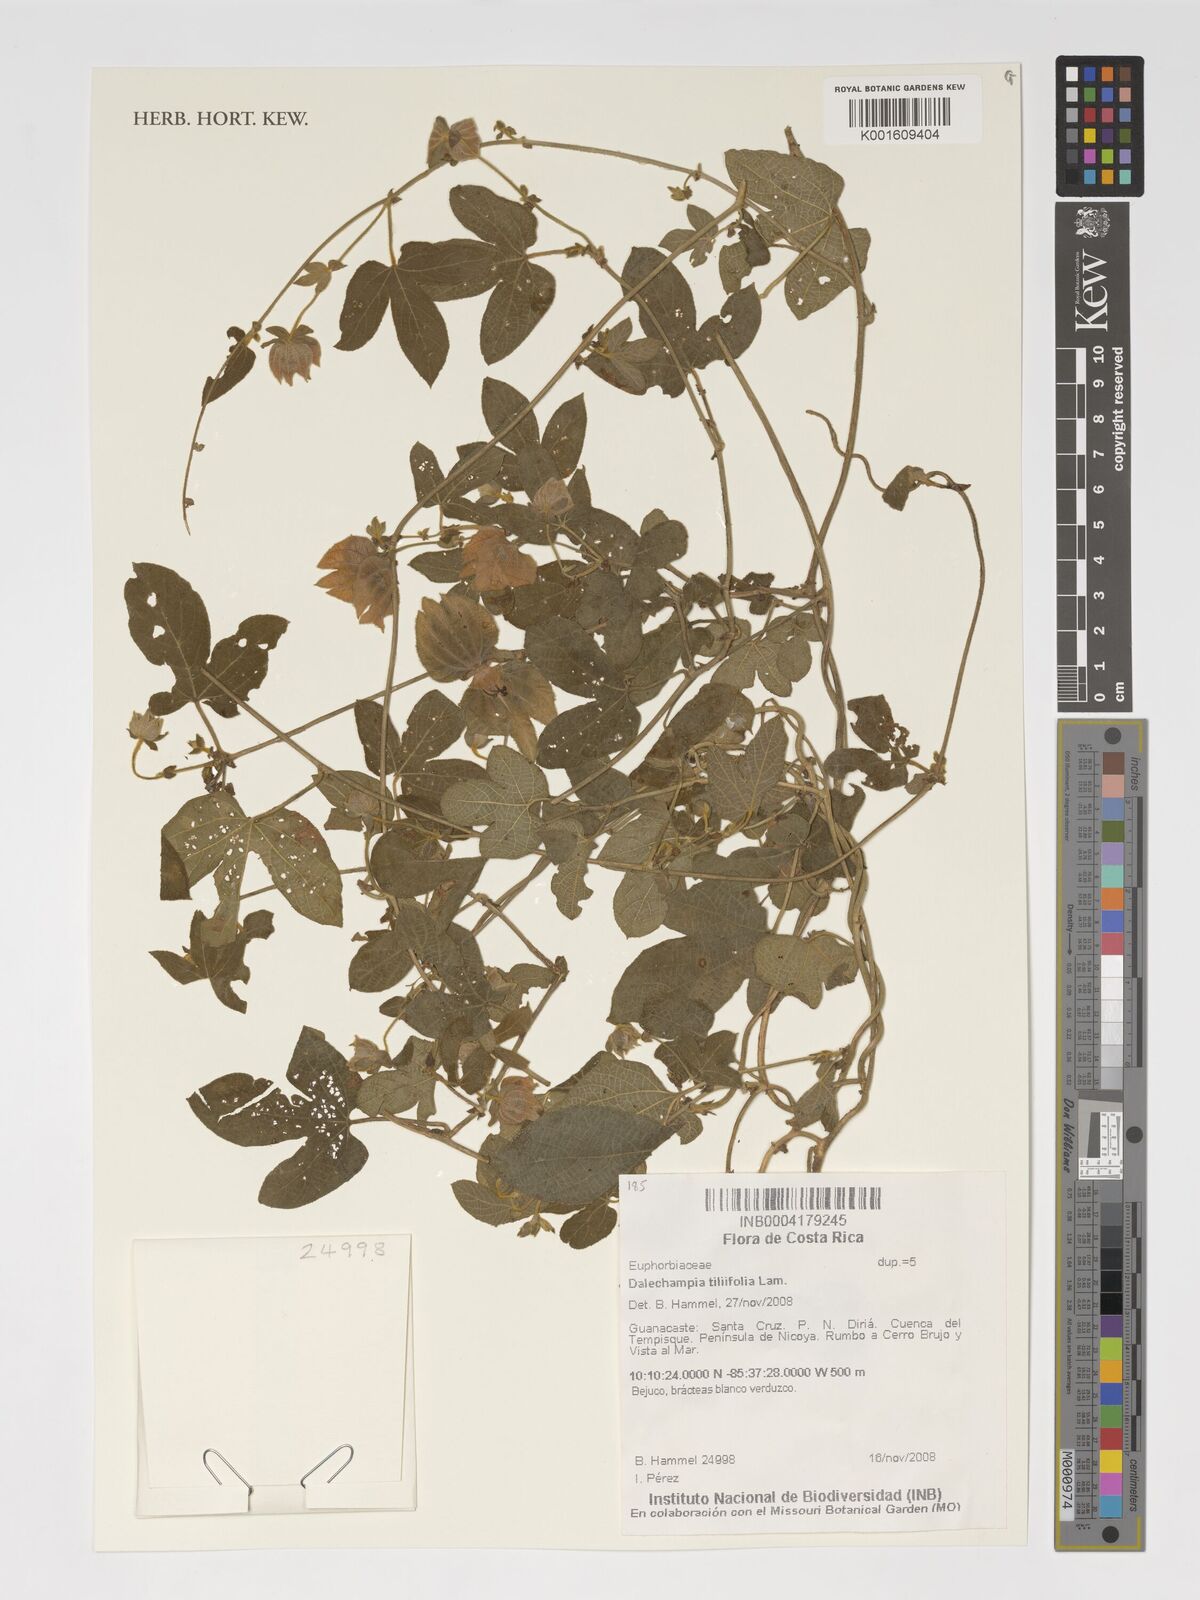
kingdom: Plantae
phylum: Tracheophyta
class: Magnoliopsida
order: Malpighiales
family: Euphorbiaceae
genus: Dalechampia
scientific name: Dalechampia tiliifolia
